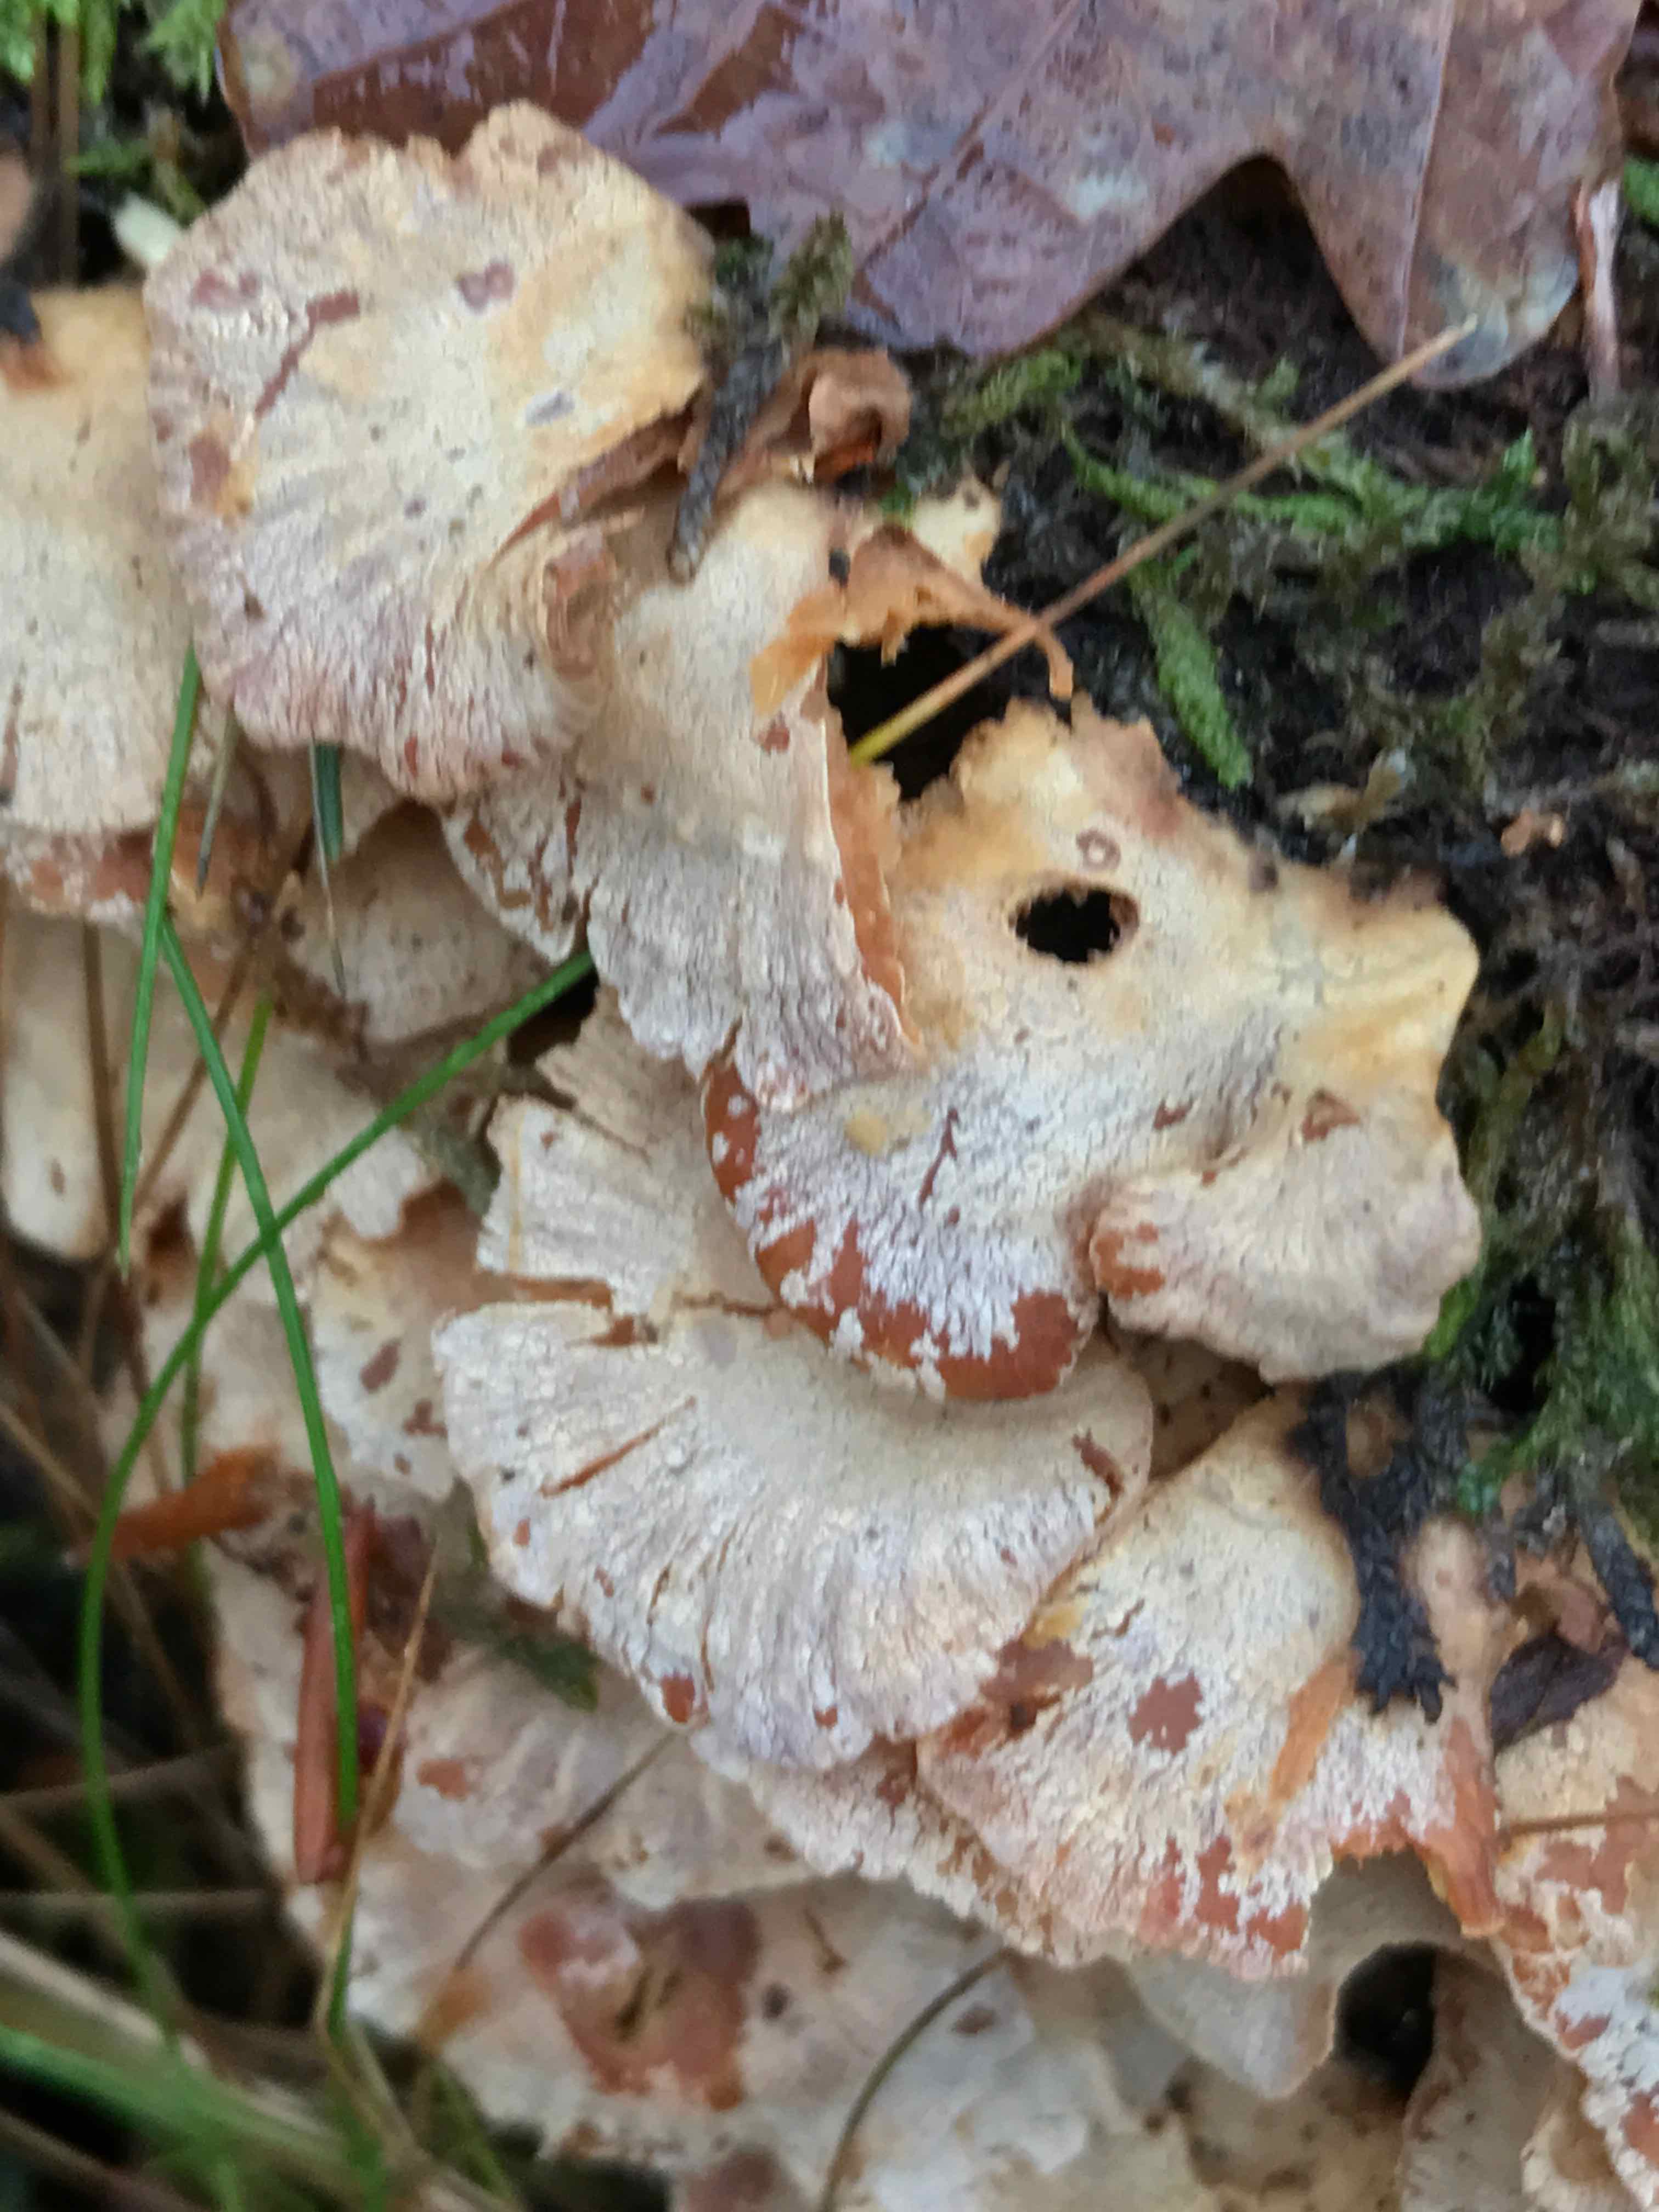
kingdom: Fungi
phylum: Basidiomycota
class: Agaricomycetes
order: Agaricales
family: Mycenaceae
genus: Panellus
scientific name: Panellus stipticus
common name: kliddet epaulethat
